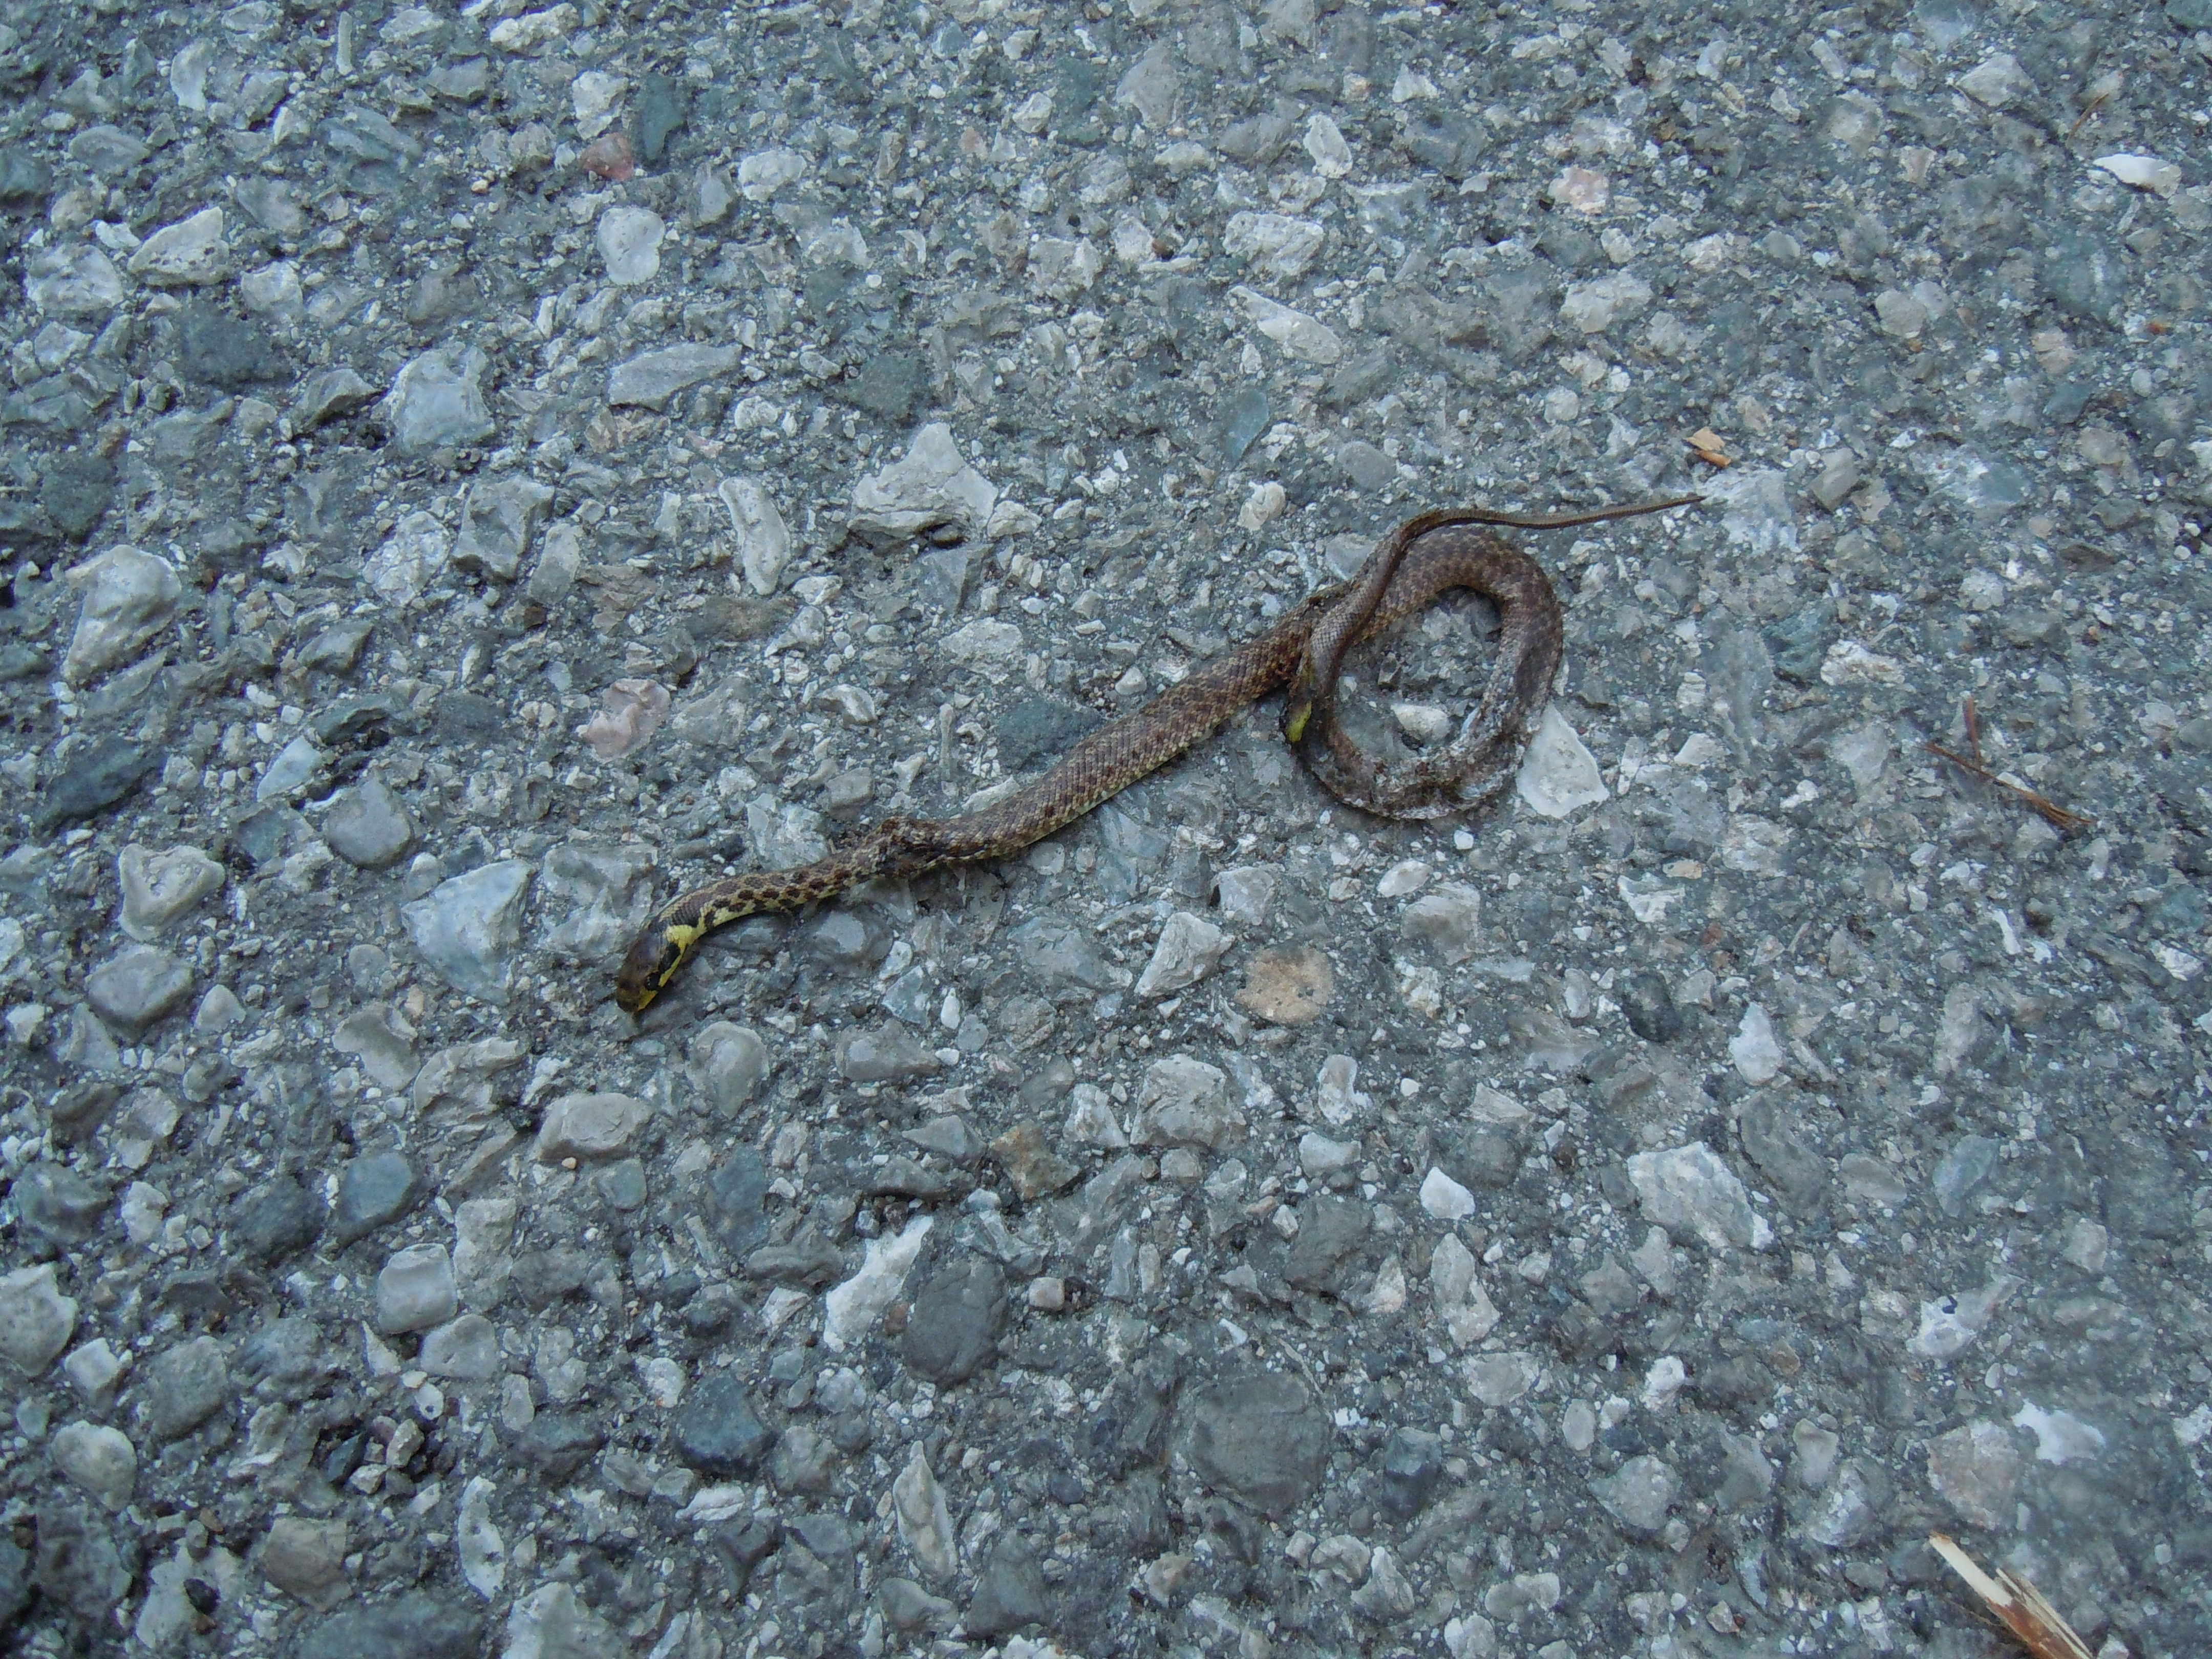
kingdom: Animalia
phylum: Chordata
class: Squamata
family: Colubridae
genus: Zamenis
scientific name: Zamenis longissimus
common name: Aesculapean snake
